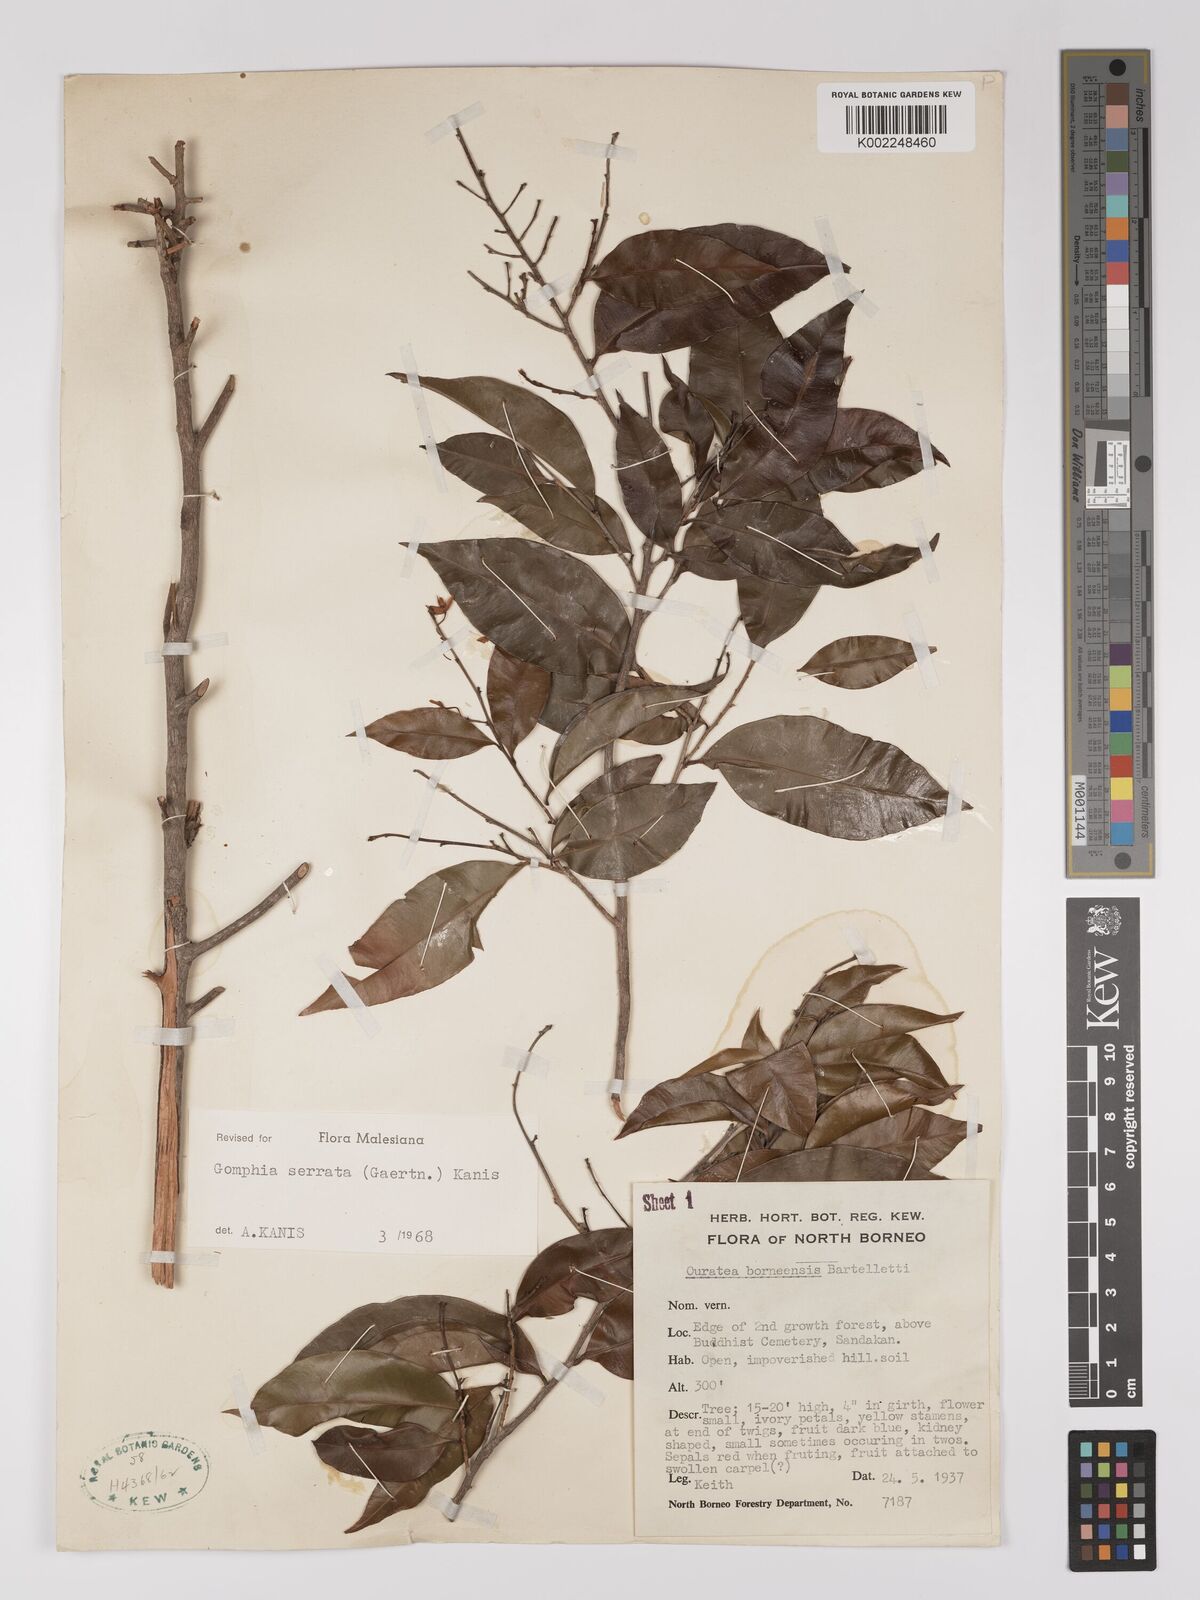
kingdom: Plantae
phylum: Tracheophyta
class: Magnoliopsida
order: Malpighiales
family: Ochnaceae
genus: Gomphia
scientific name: Gomphia serrata
